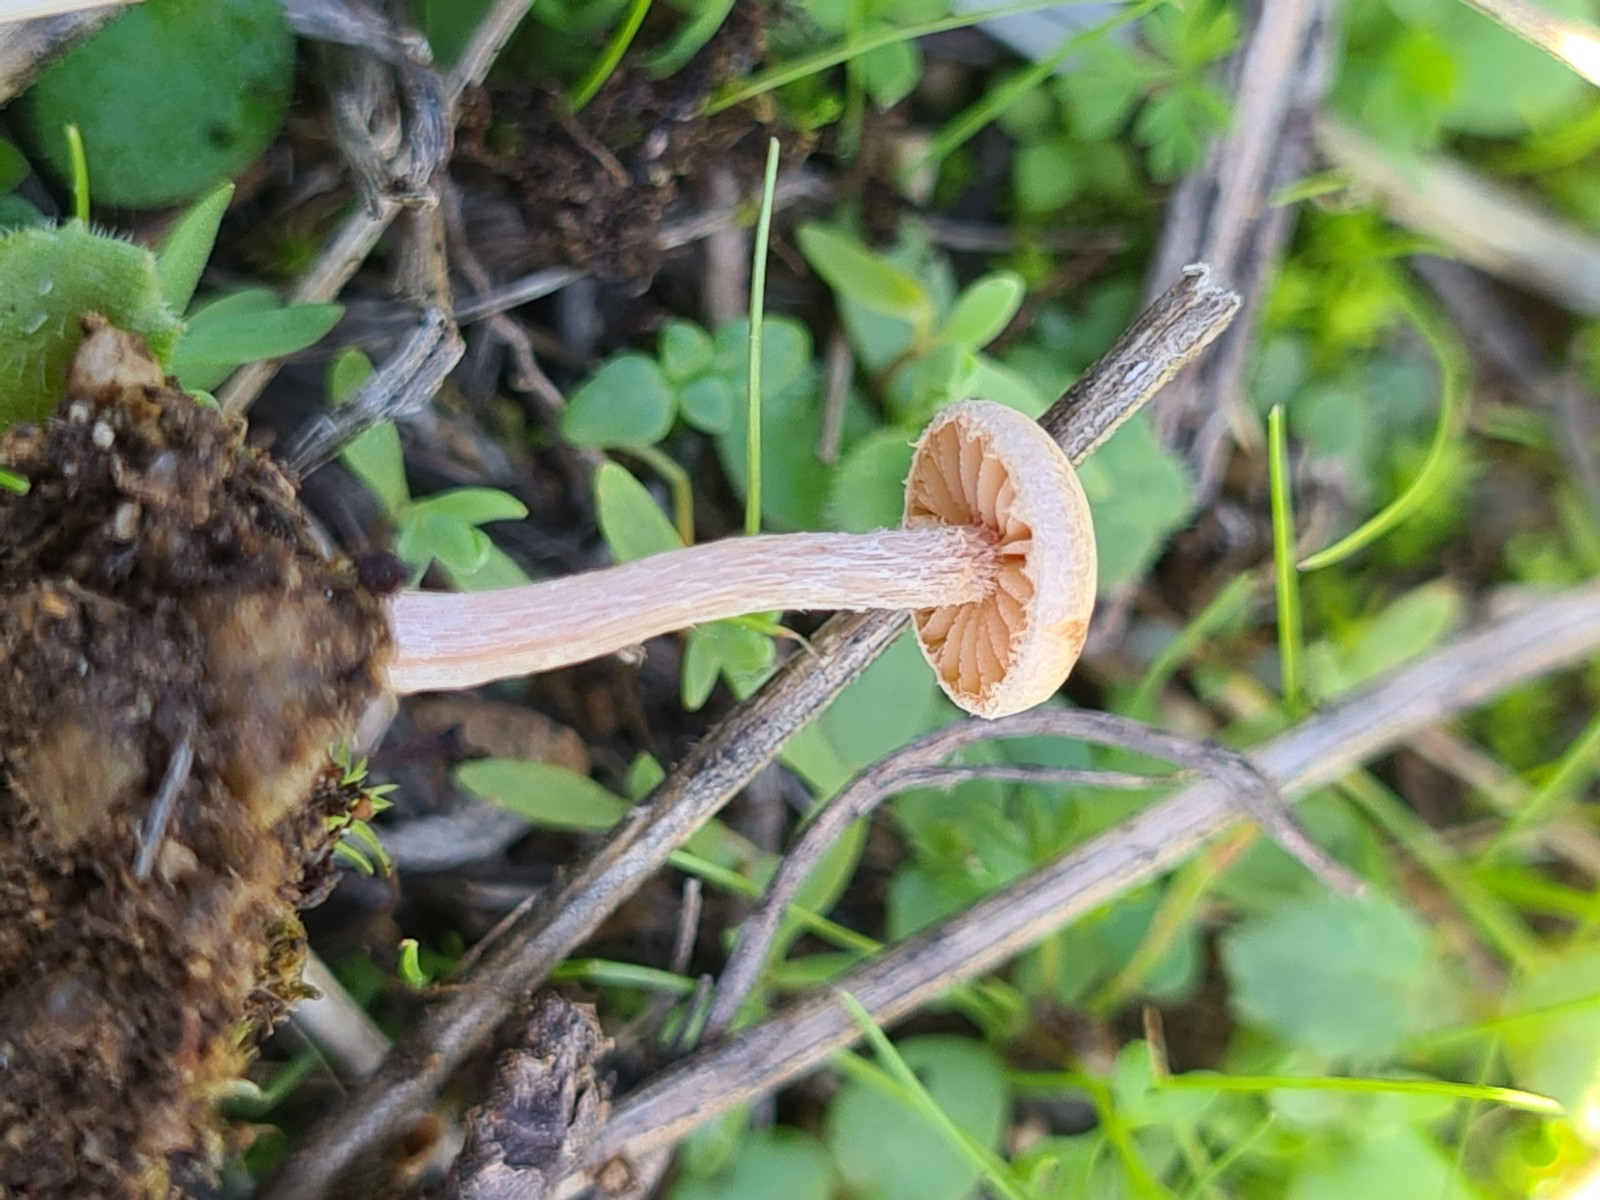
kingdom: Fungi
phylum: Basidiomycota
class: Agaricomycetes
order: Agaricales
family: Tubariaceae
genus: Tubaria
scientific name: Tubaria conspersa
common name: bleg fnughat
